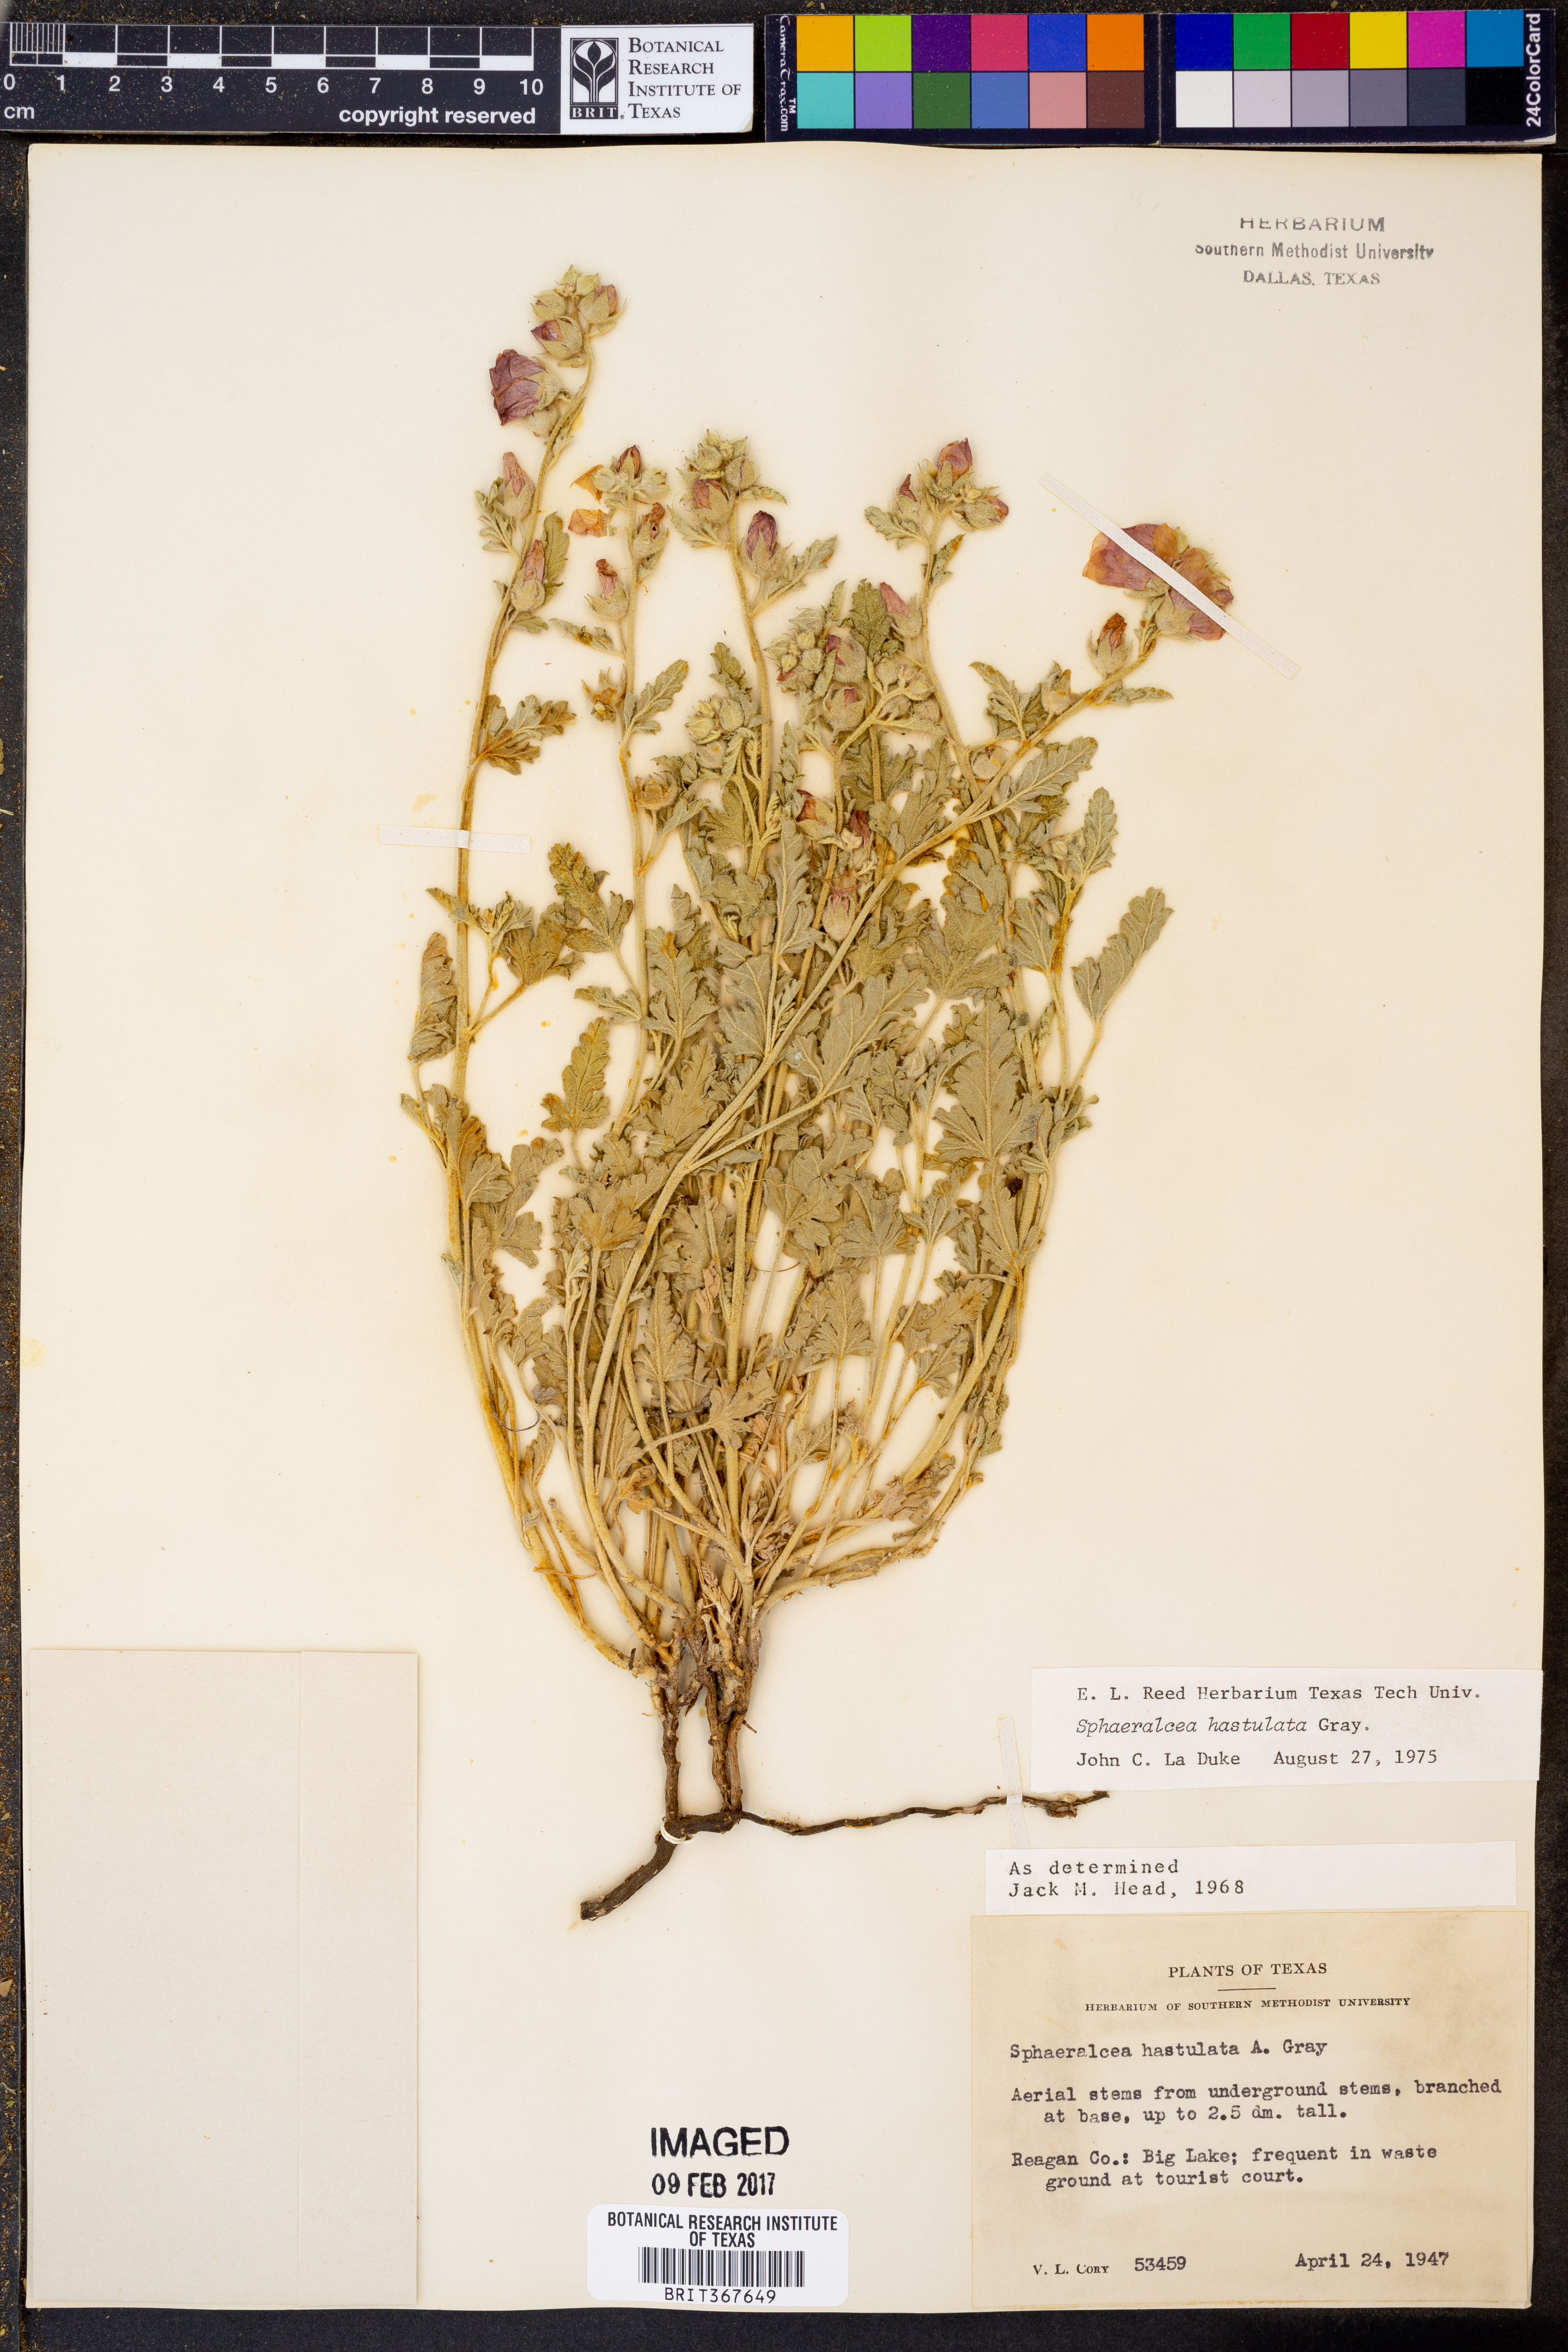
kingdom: Plantae
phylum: Tracheophyta
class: Magnoliopsida
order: Malvales
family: Malvaceae
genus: Sphaeralcea
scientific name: Sphaeralcea hastulata
